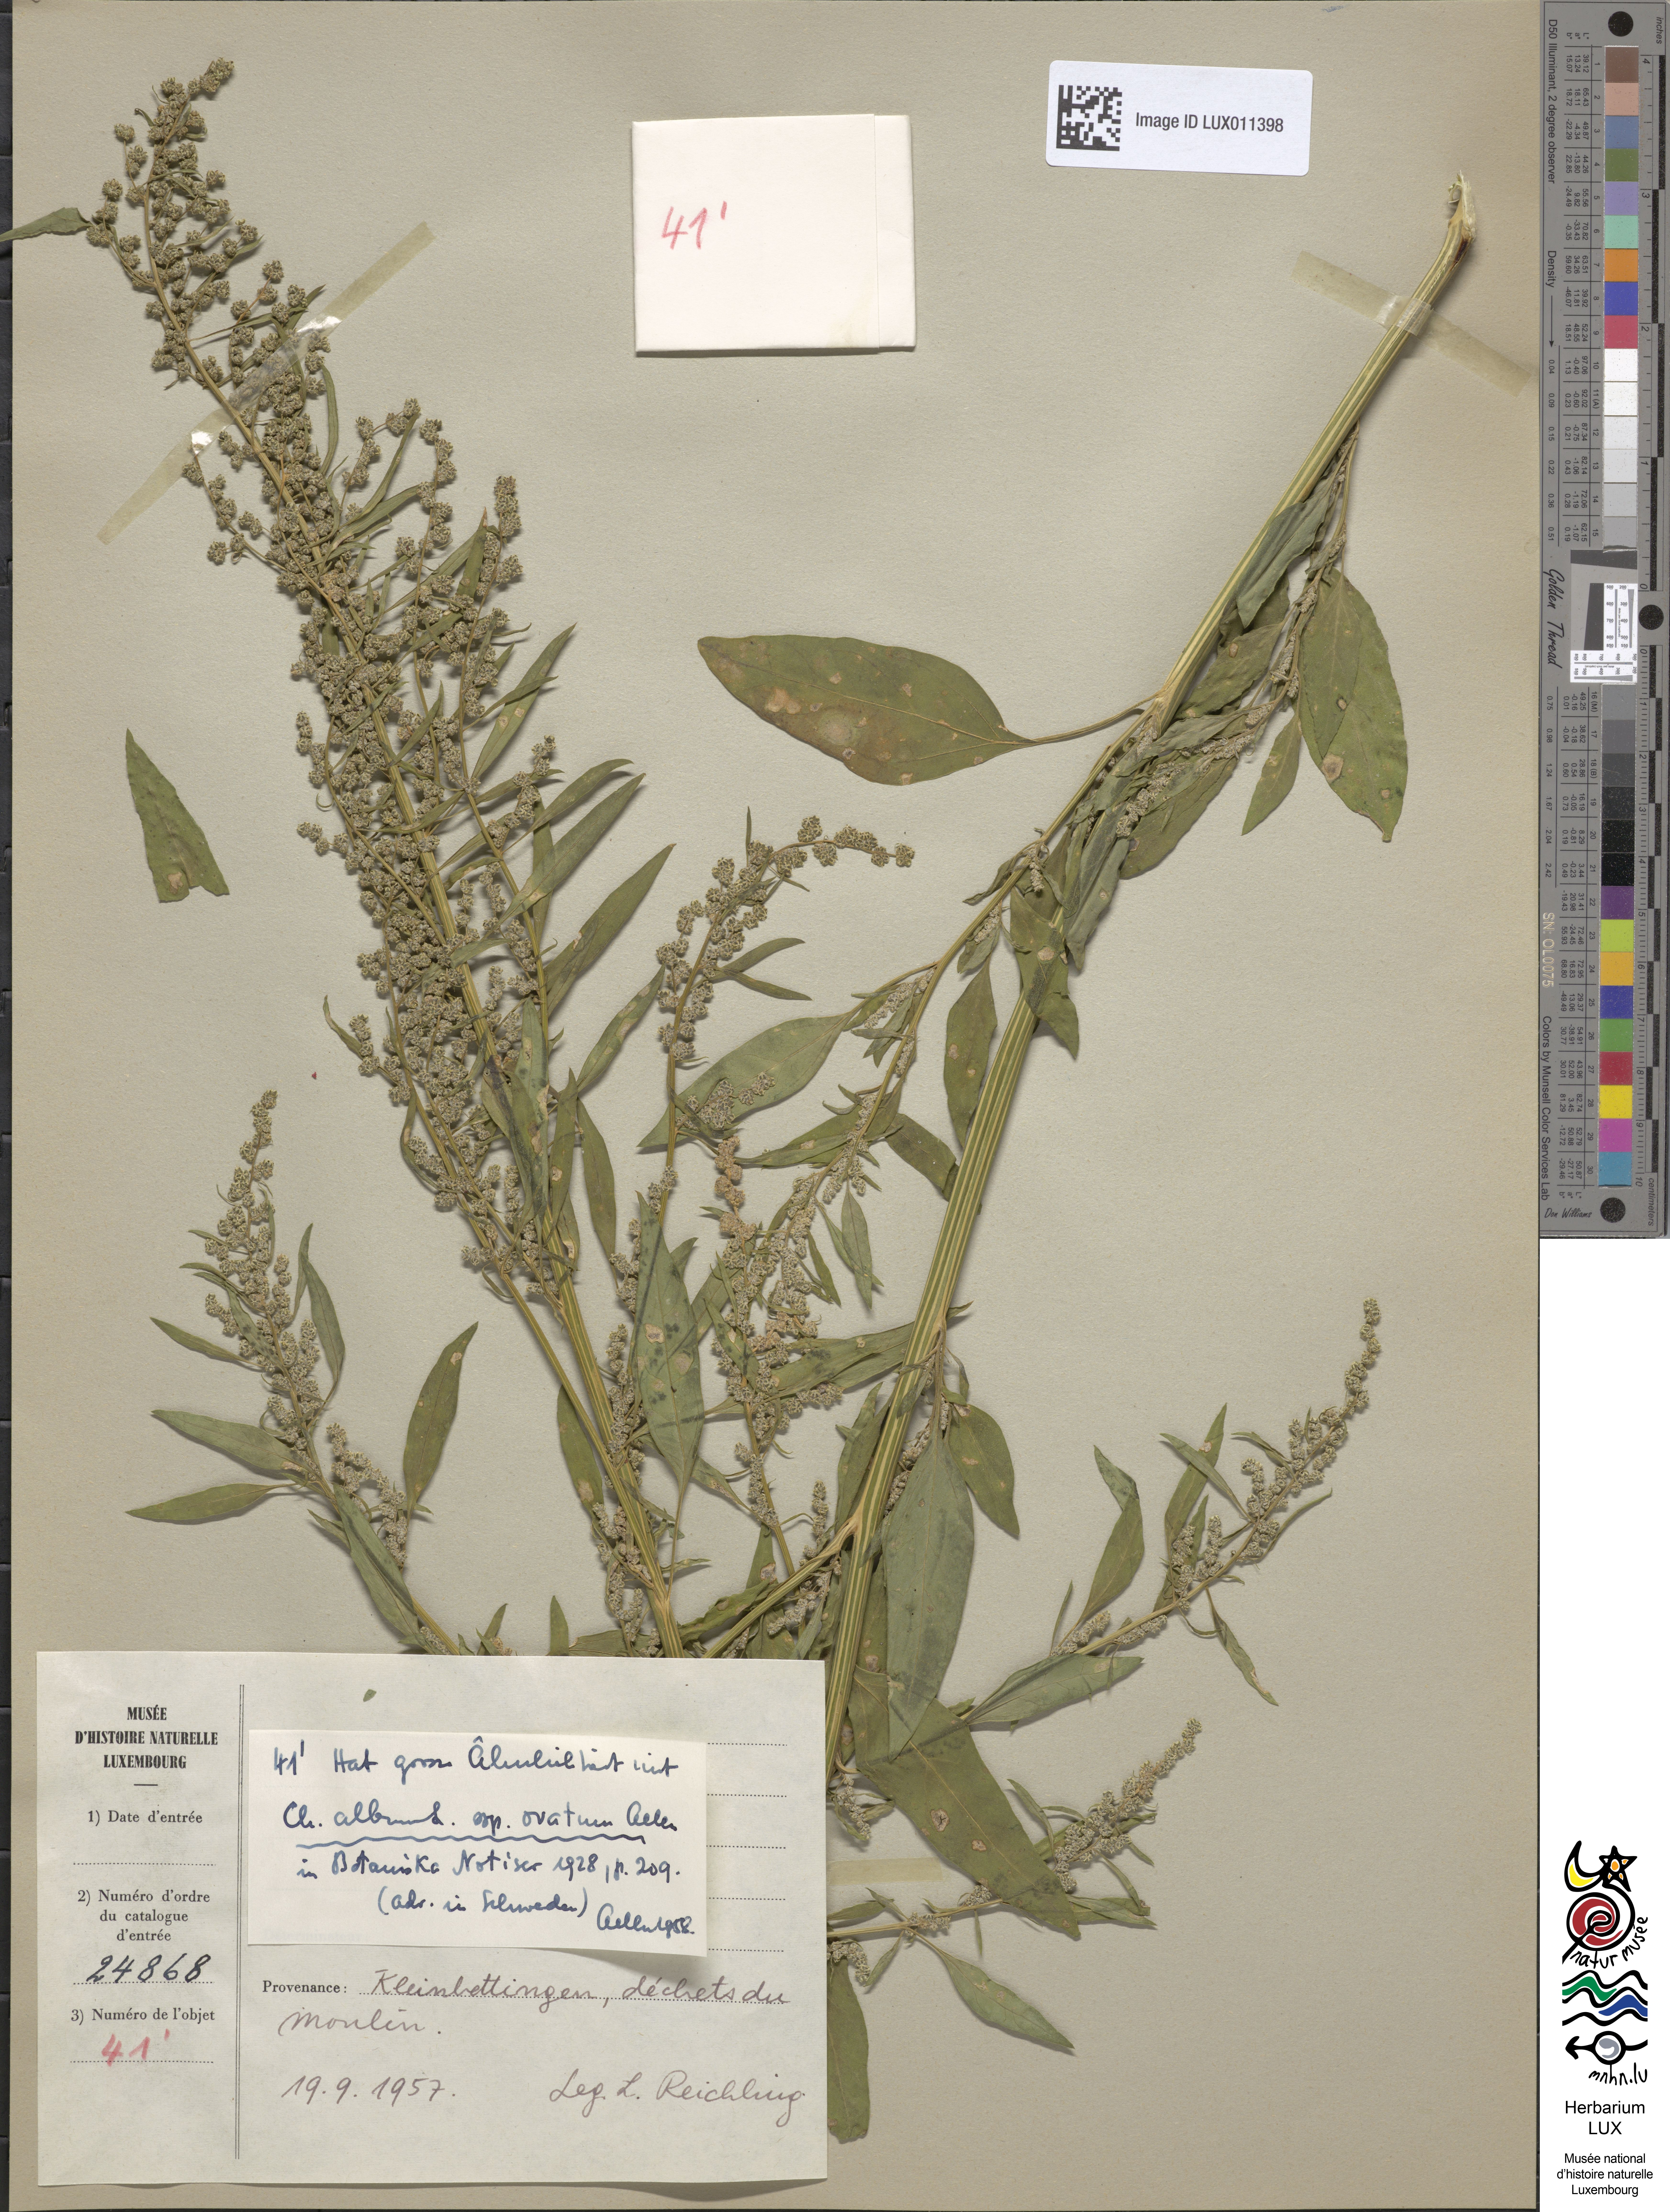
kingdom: Plantae
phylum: Tracheophyta
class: Magnoliopsida
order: Caryophyllales
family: Amaranthaceae
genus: Chenopodium
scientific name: Chenopodium album
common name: Fat-hen
